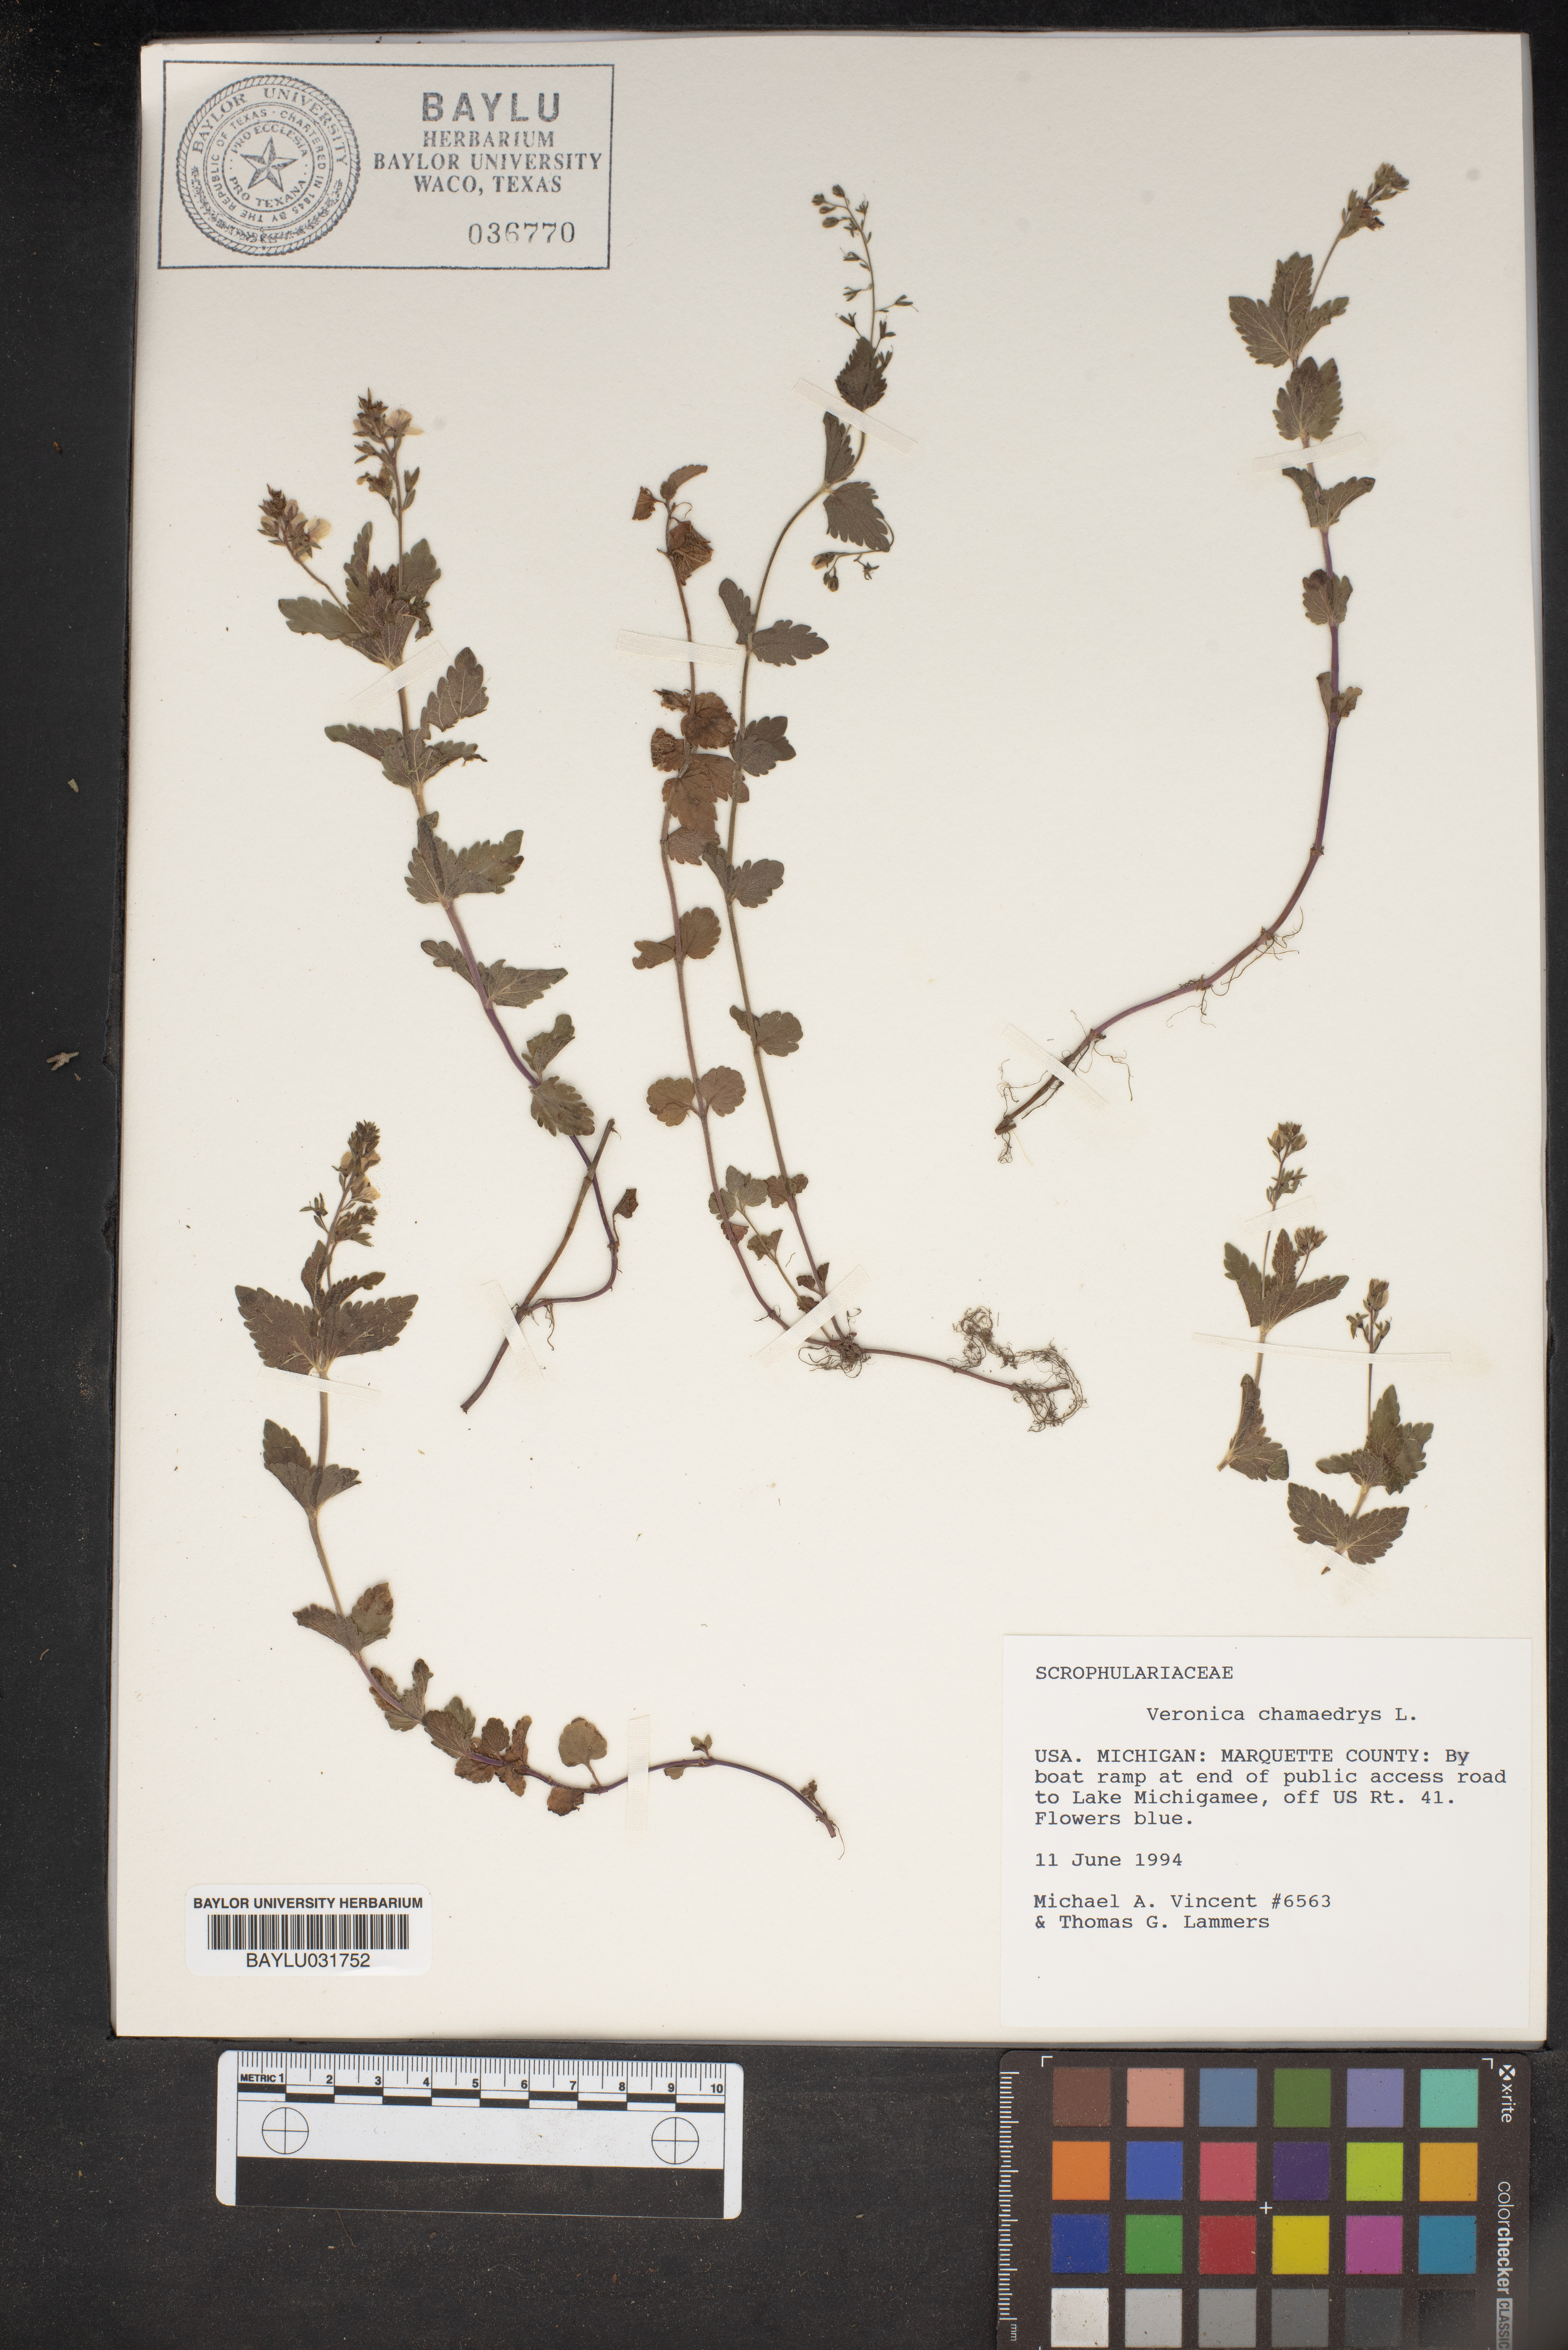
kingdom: Plantae
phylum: Tracheophyta
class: Magnoliopsida
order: Lamiales
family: Plantaginaceae
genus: Veronica
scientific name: Veronica chamaedrys
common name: Germander speedwell
